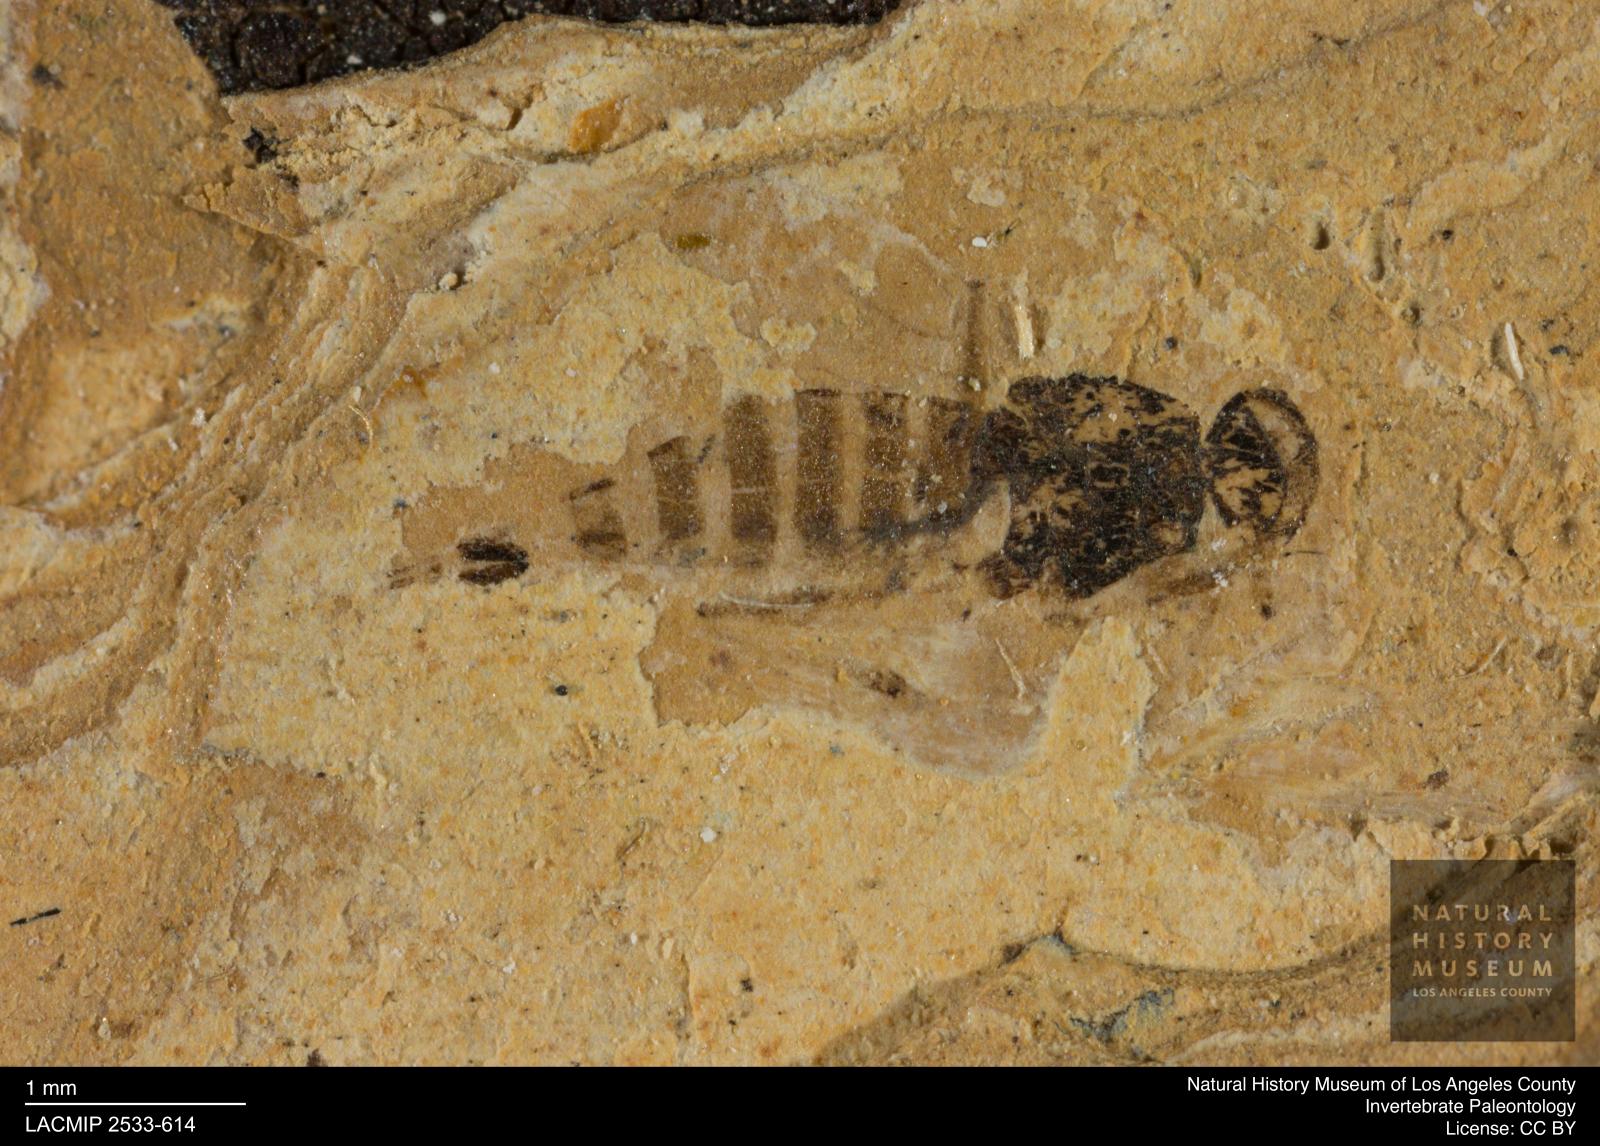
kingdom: Animalia
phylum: Arthropoda
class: Insecta
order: Diptera
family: Sepsidae
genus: Sepsis
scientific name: Sepsis ignobilis
